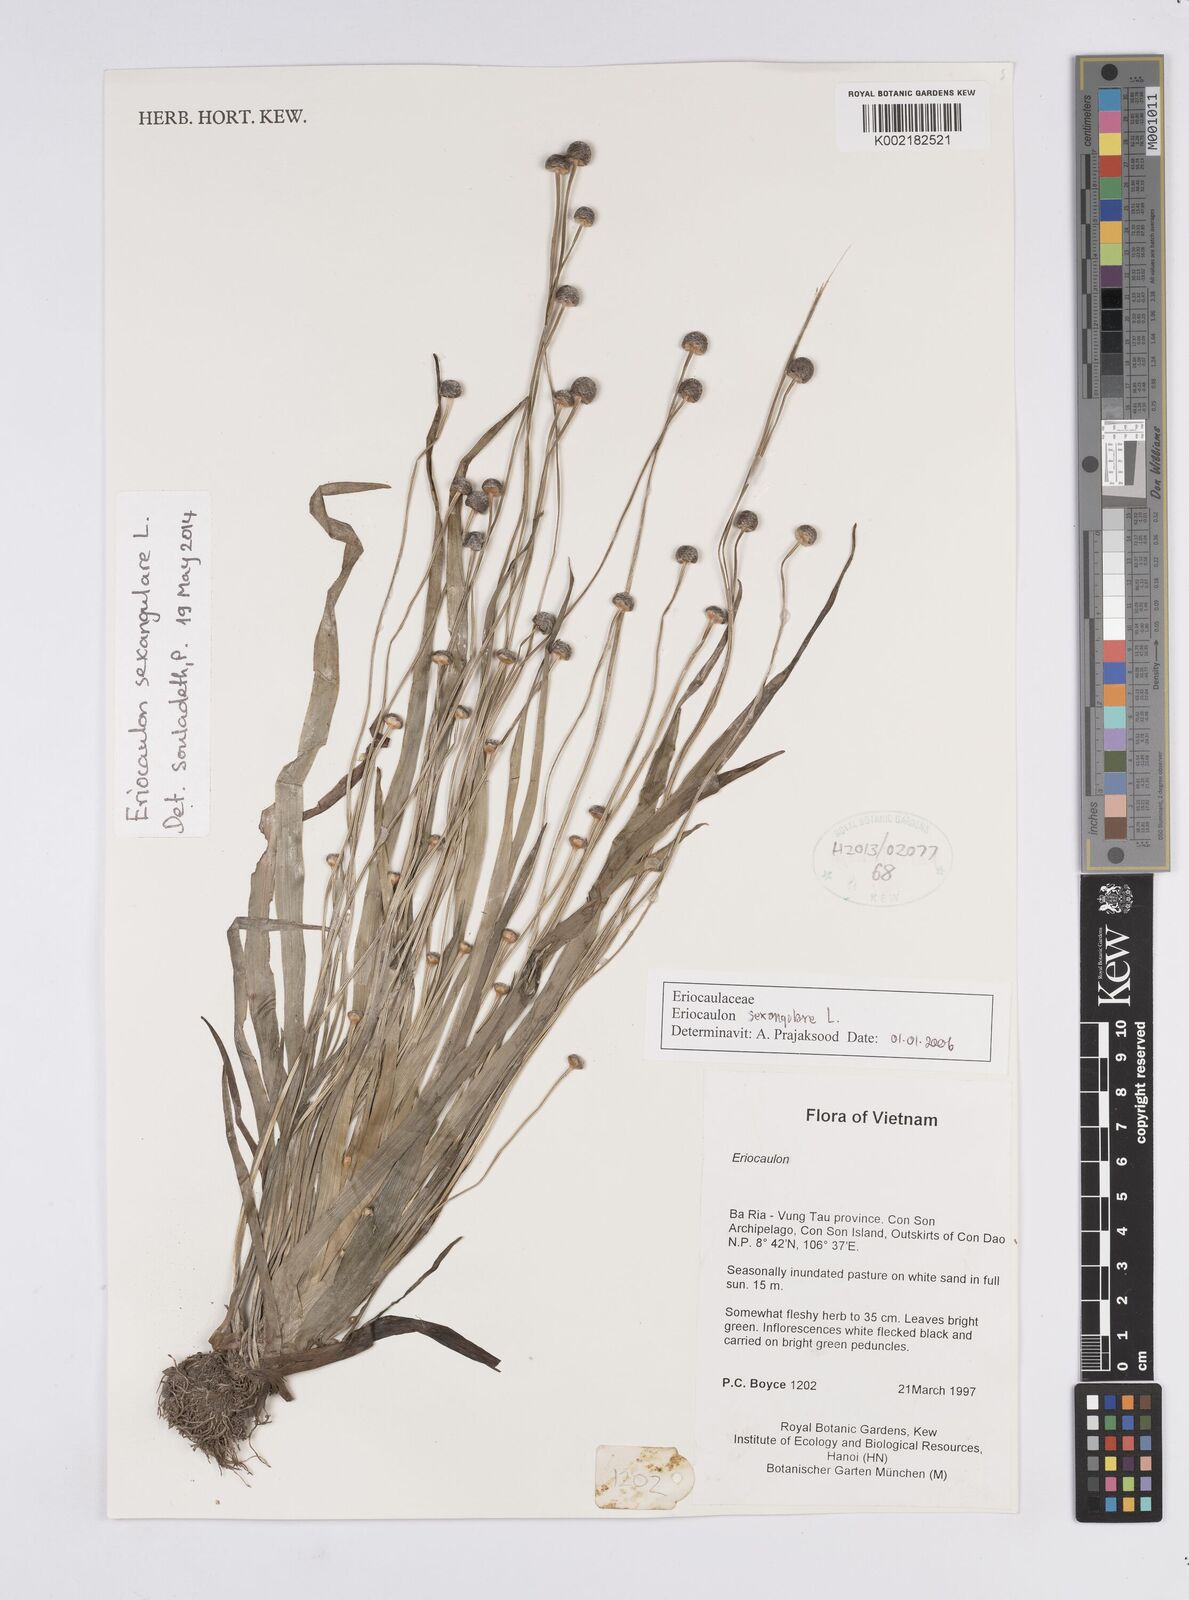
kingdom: Plantae
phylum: Tracheophyta
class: Liliopsida
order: Poales
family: Eriocaulaceae
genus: Eriocaulon
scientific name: Eriocaulon sexangulare
